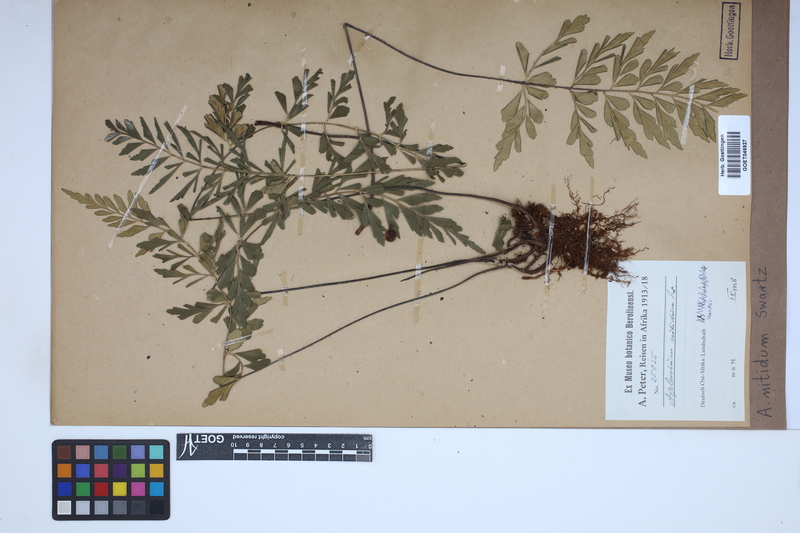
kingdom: Plantae
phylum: Tracheophyta
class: Polypodiopsida
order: Polypodiales
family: Aspleniaceae
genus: Asplenium
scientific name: Asplenium nitidum
